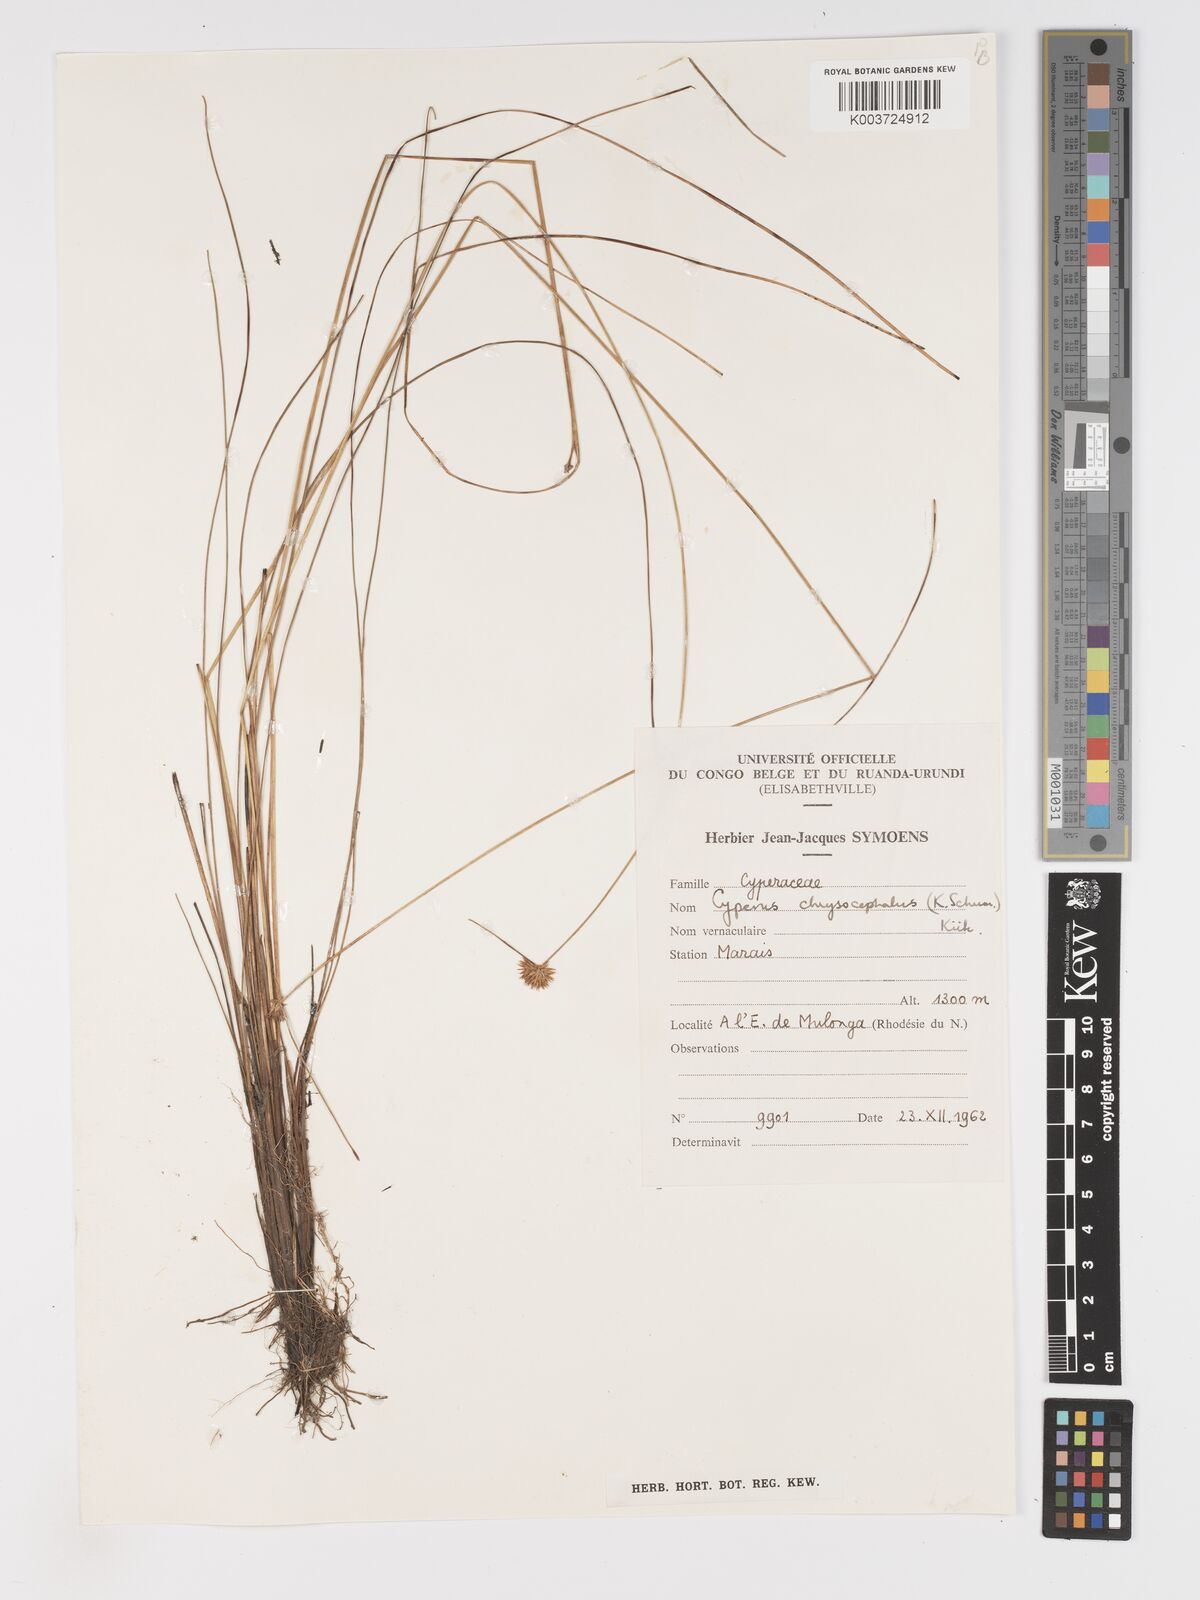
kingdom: Plantae
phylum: Tracheophyta
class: Liliopsida
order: Poales
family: Cyperaceae
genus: Cyperus
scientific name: Cyperus chrysocephalus
